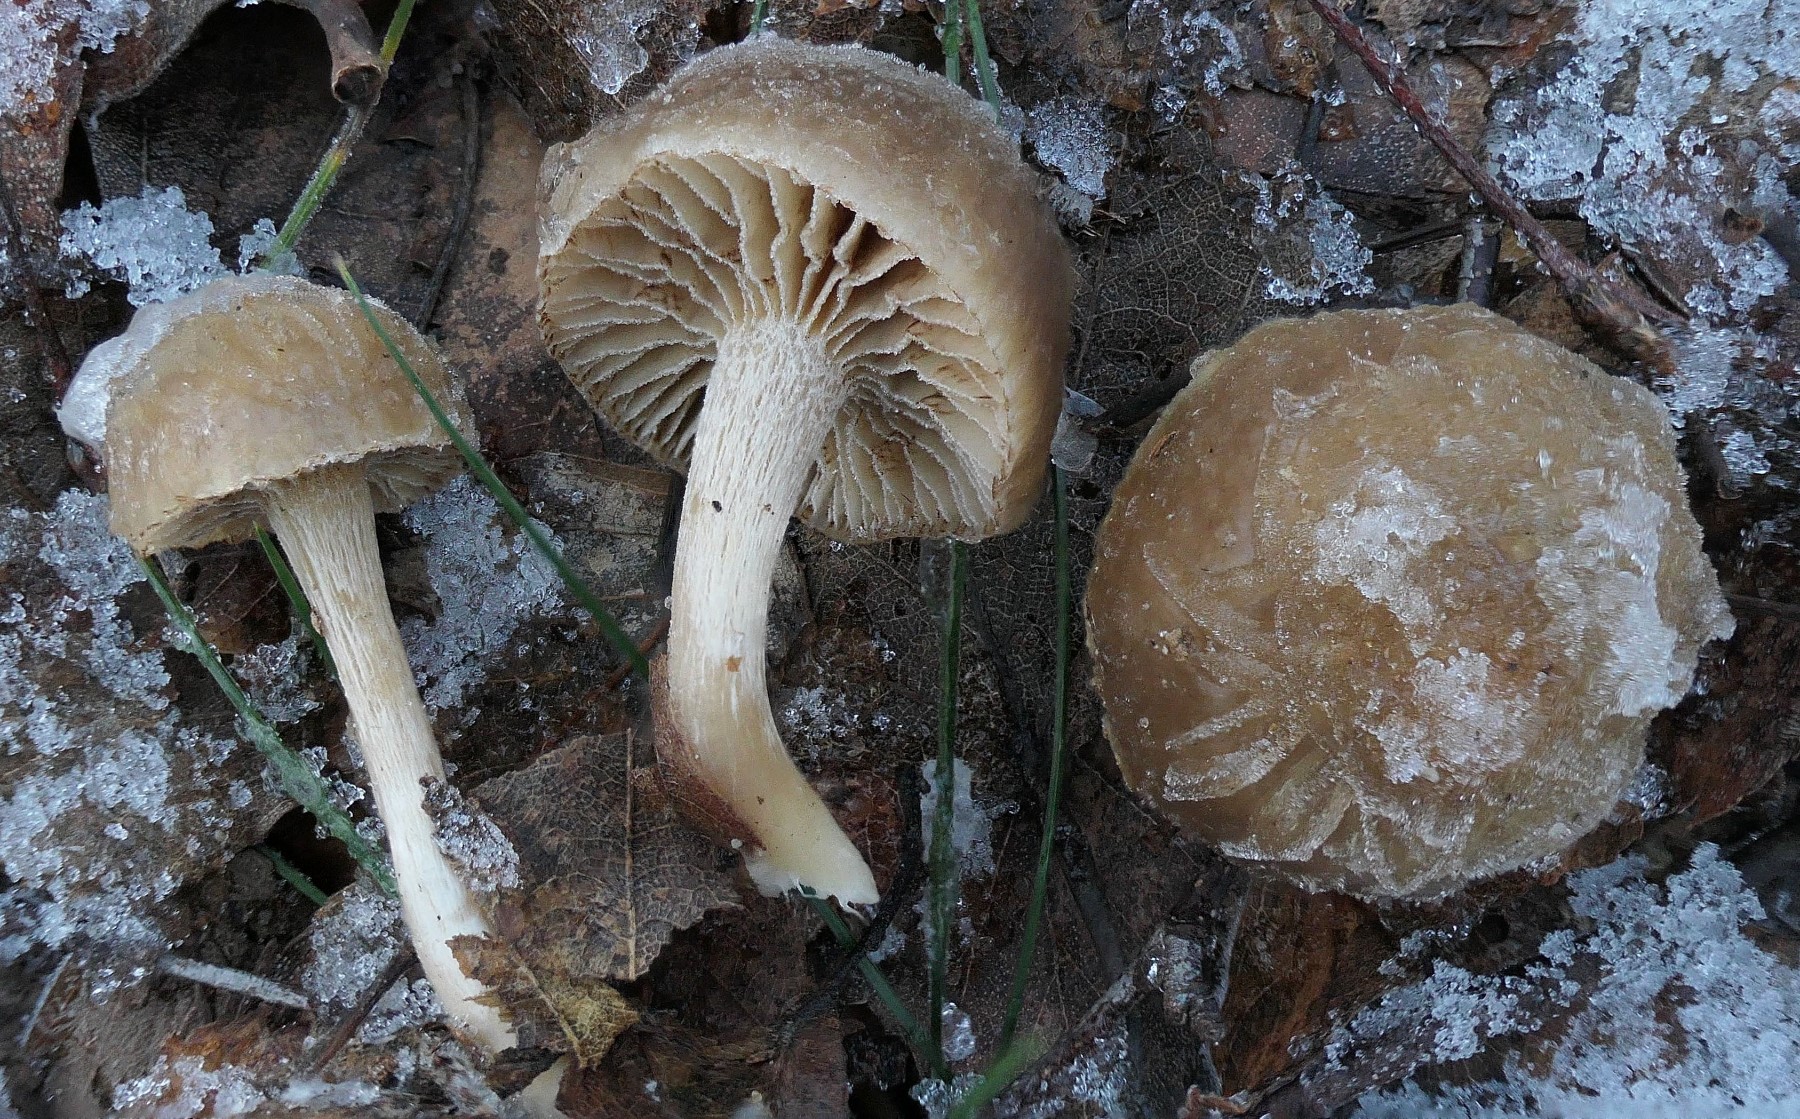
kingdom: Fungi
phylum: Basidiomycota
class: Agaricomycetes
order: Agaricales
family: Strophariaceae
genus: Meottomyces
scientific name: Meottomyces dissimulans
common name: smudsigbrun vinterskælhat
